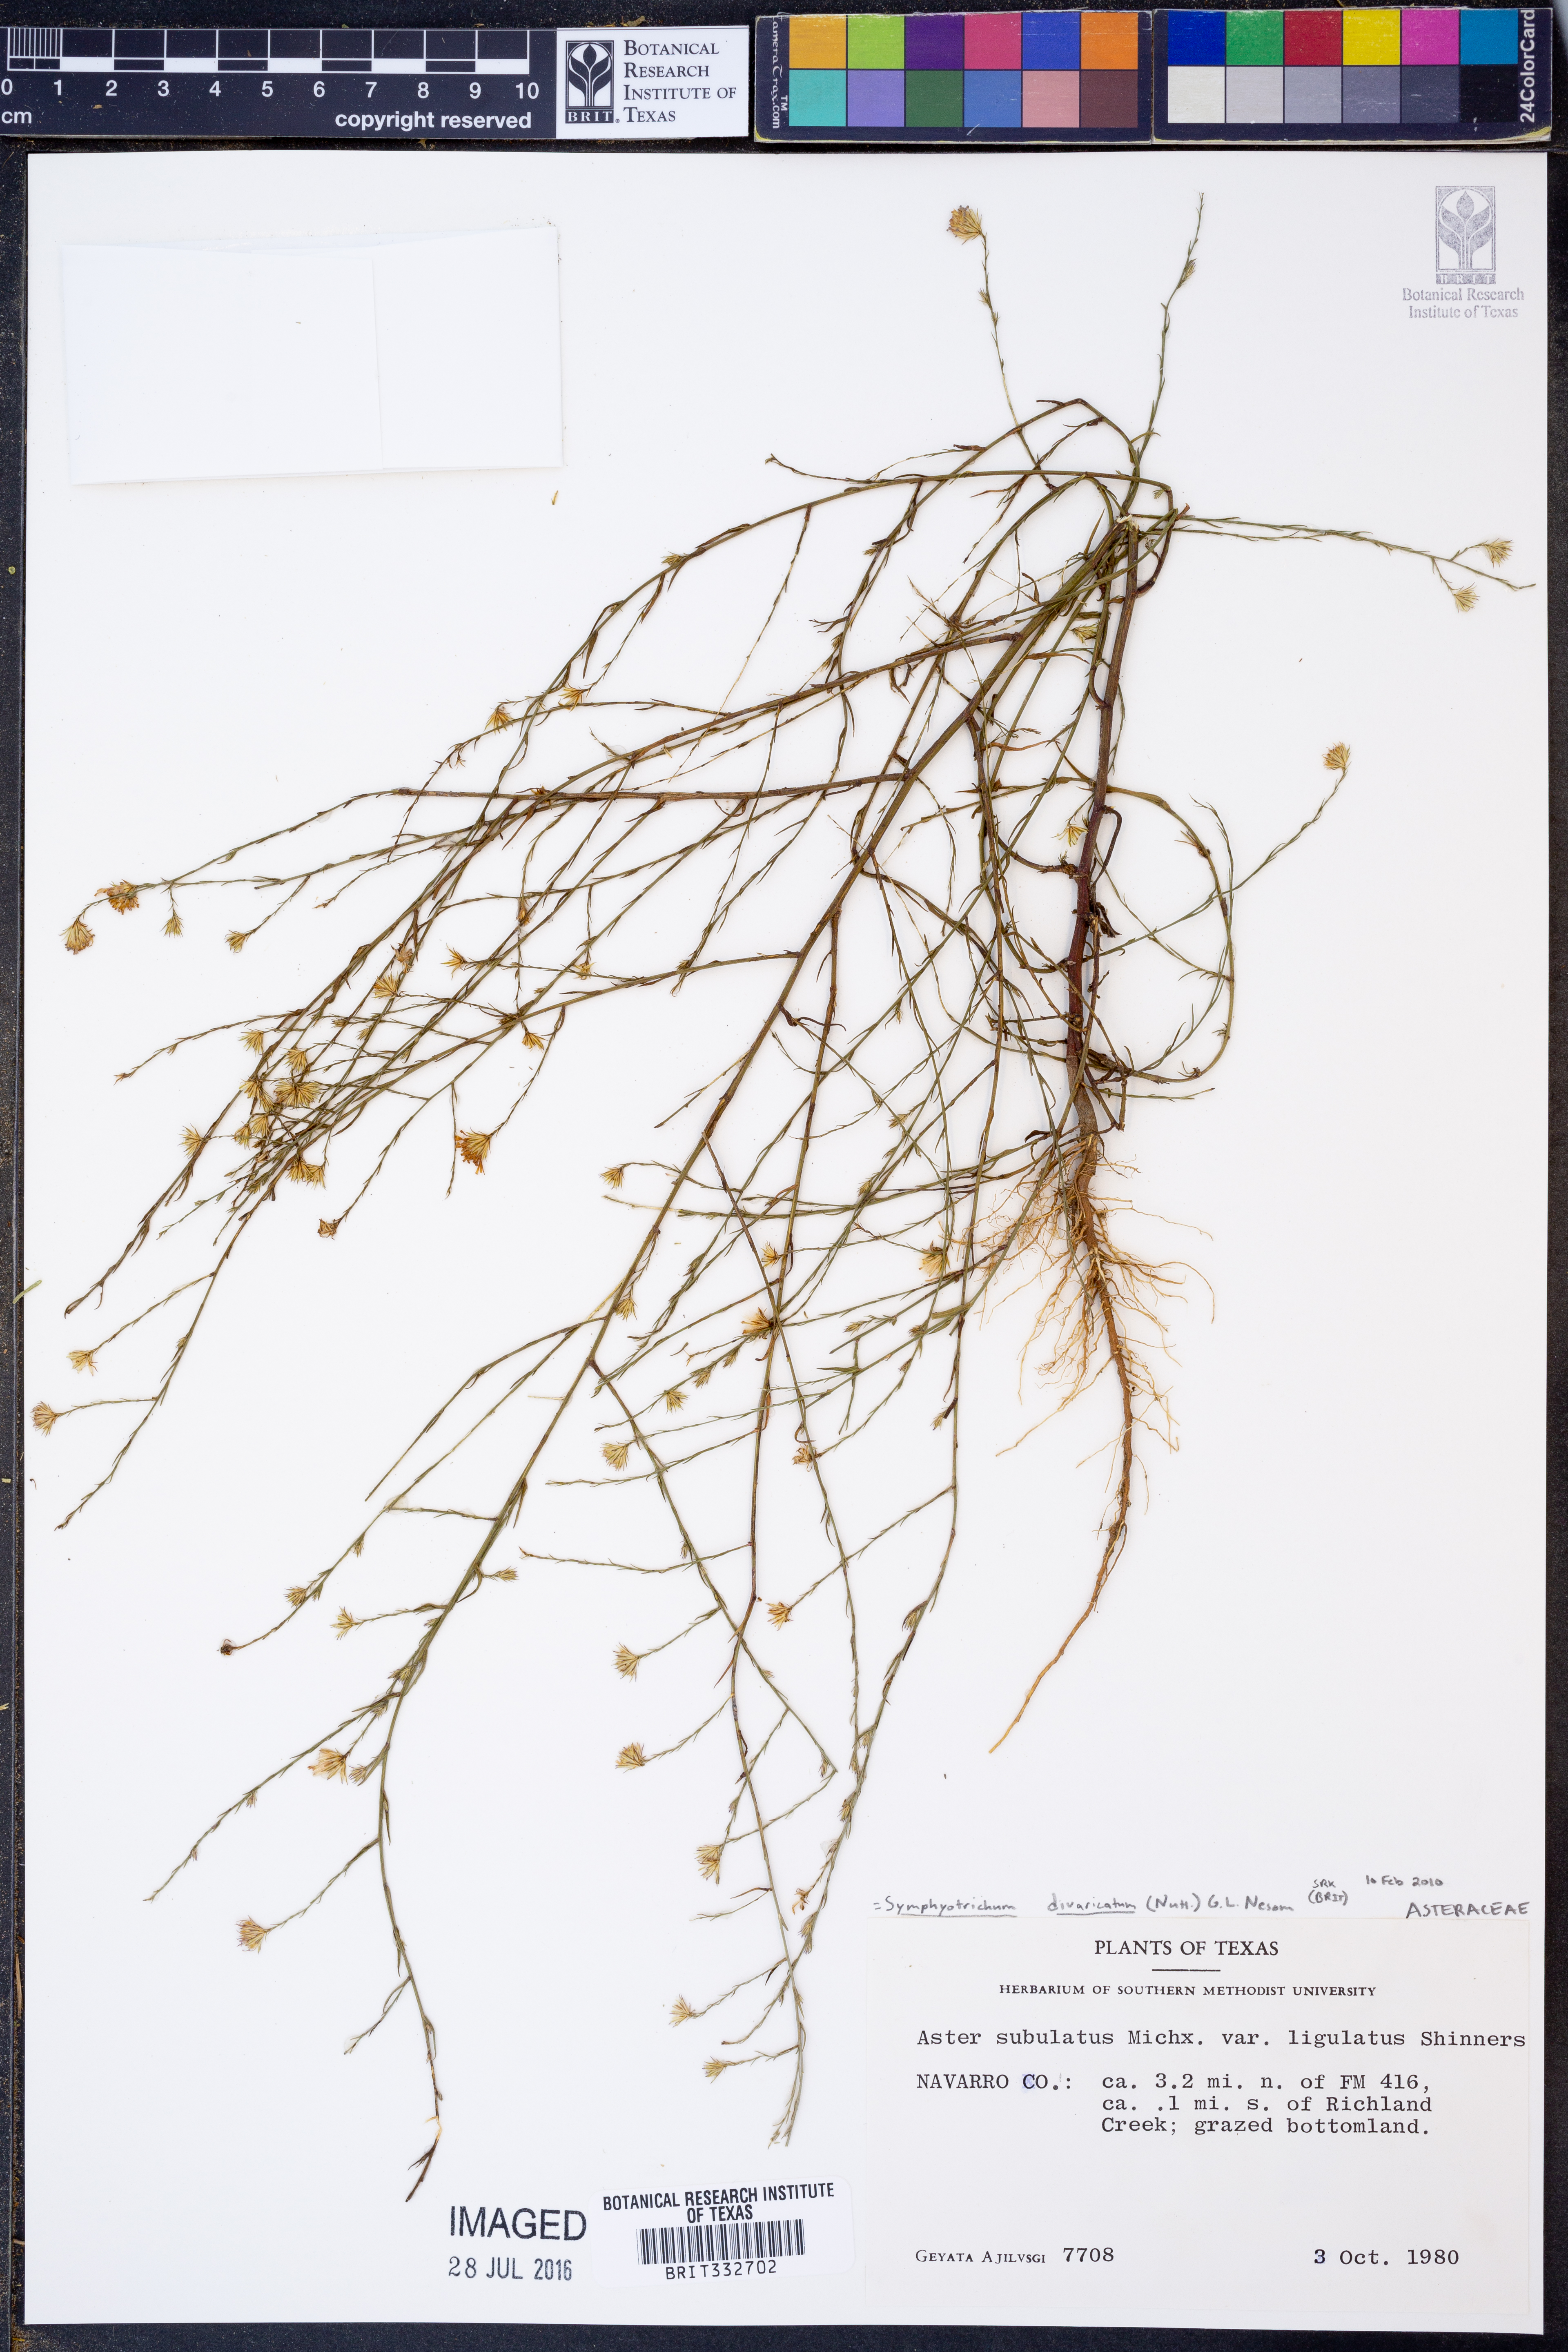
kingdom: Plantae
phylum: Tracheophyta
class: Magnoliopsida
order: Asterales
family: Asteraceae
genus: Symphyotrichum
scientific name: Symphyotrichum divaricatum
